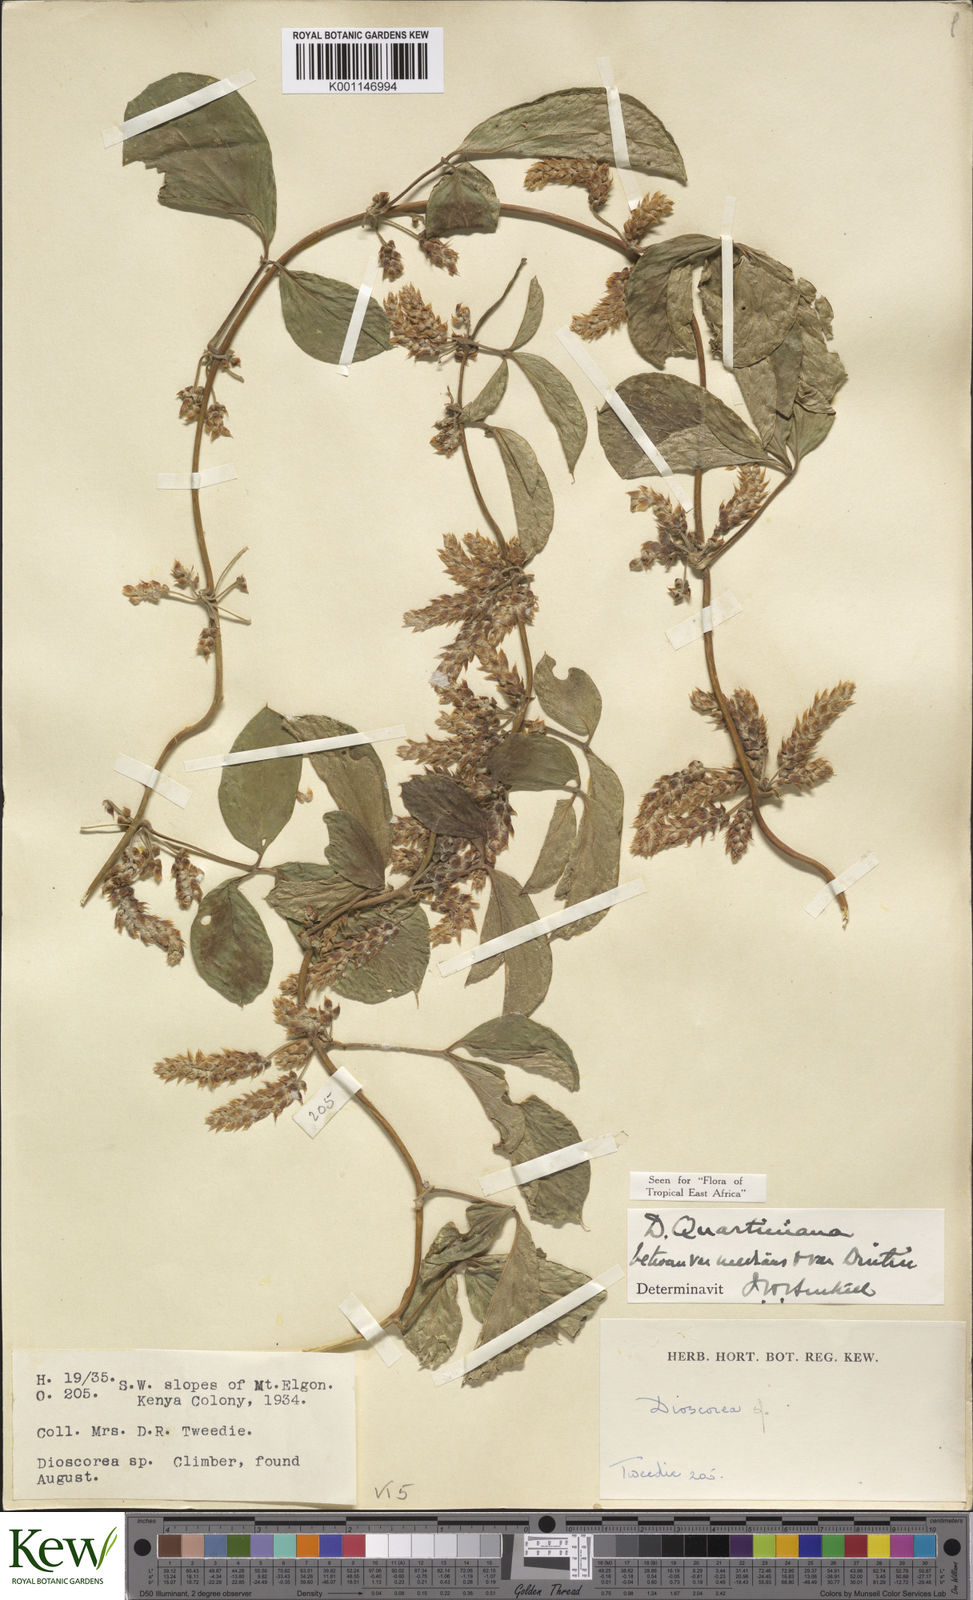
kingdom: Plantae
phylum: Tracheophyta
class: Liliopsida
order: Dioscoreales
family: Dioscoreaceae
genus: Dioscorea
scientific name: Dioscorea quartiniana
